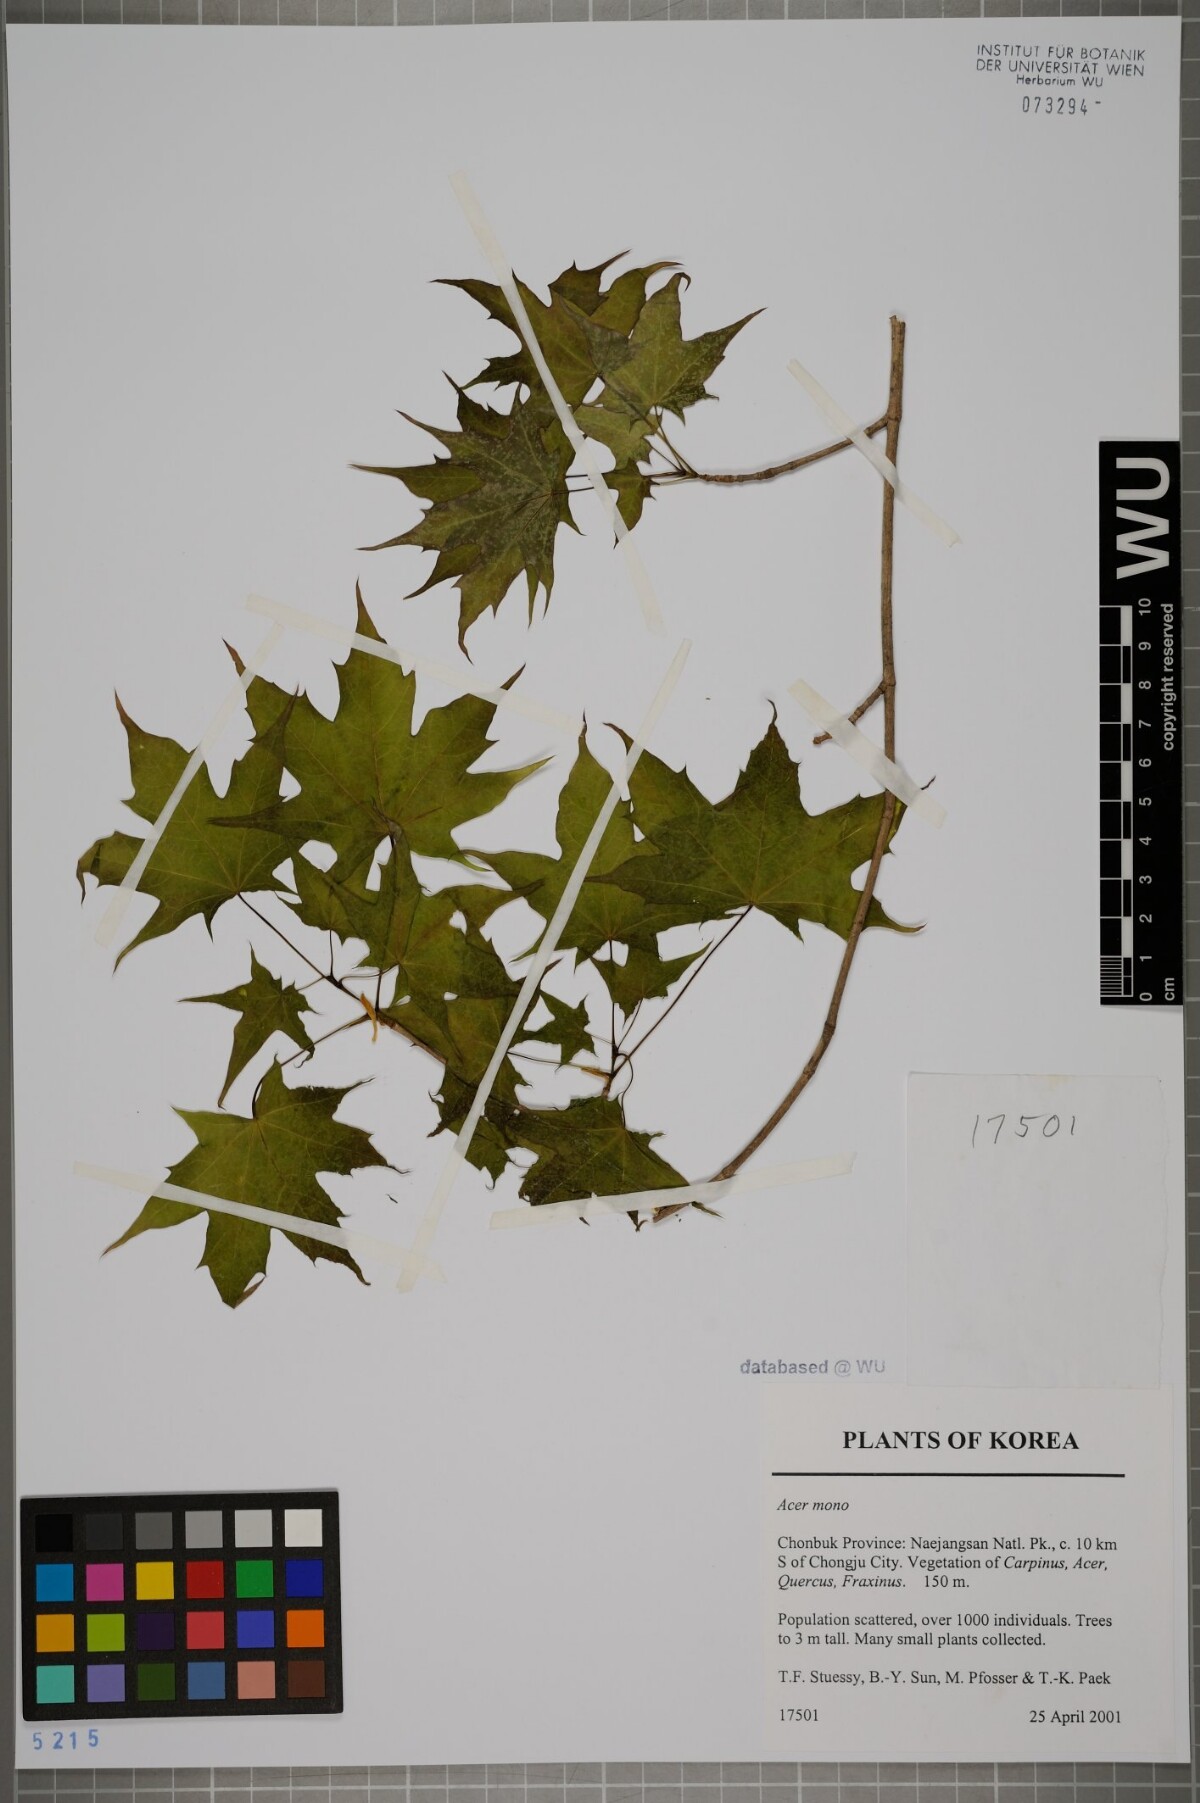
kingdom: Plantae
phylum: Tracheophyta
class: Magnoliopsida
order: Sapindales
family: Sapindaceae
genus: Acer
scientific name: Acer pictum
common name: The painted maple
